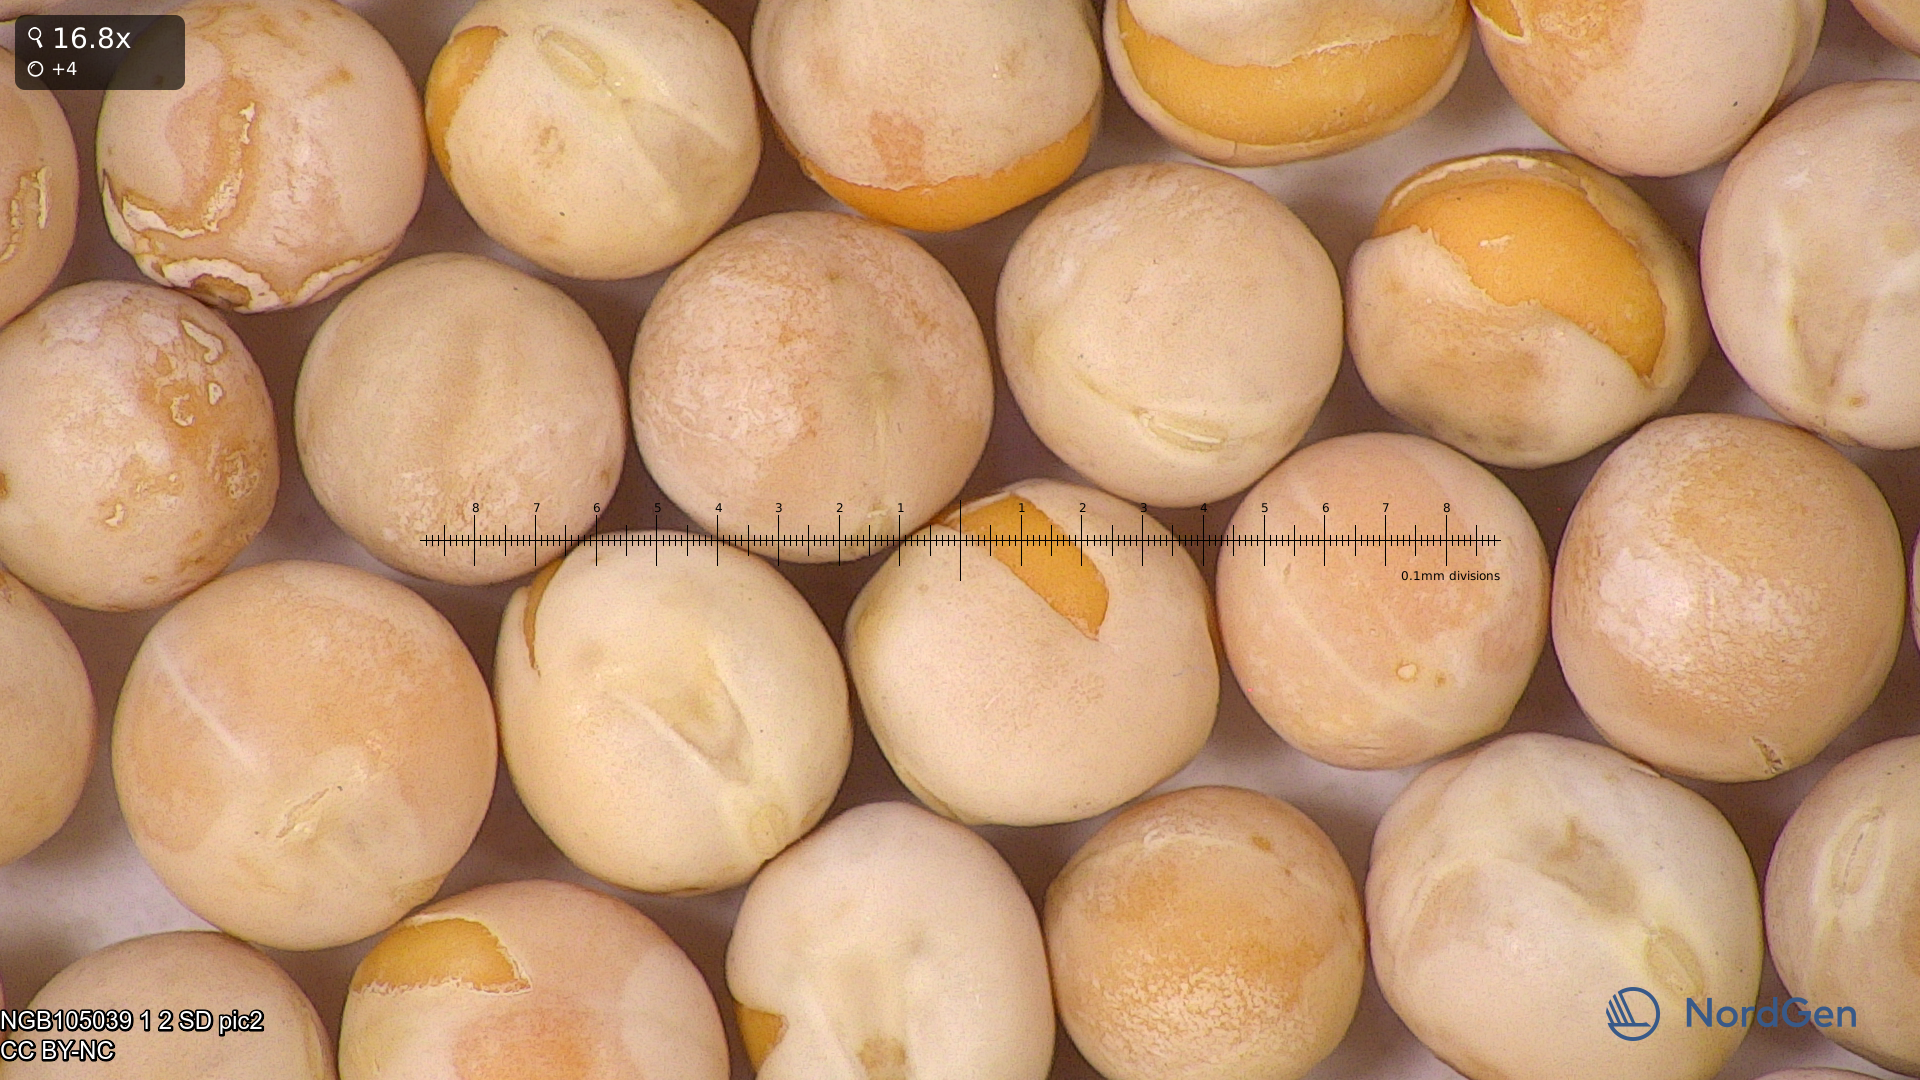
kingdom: Plantae
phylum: Tracheophyta
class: Magnoliopsida
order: Fabales
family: Fabaceae
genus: Lathyrus
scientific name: Lathyrus oleraceus
